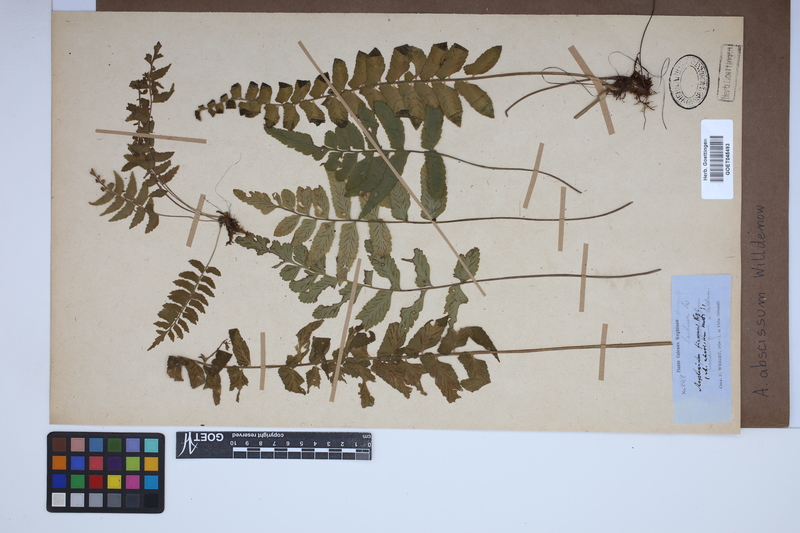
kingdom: Plantae
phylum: Tracheophyta
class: Polypodiopsida
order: Polypodiales
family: Aspleniaceae
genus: Asplenium
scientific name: Asplenium abscissum
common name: Cutleaf spleenwort
